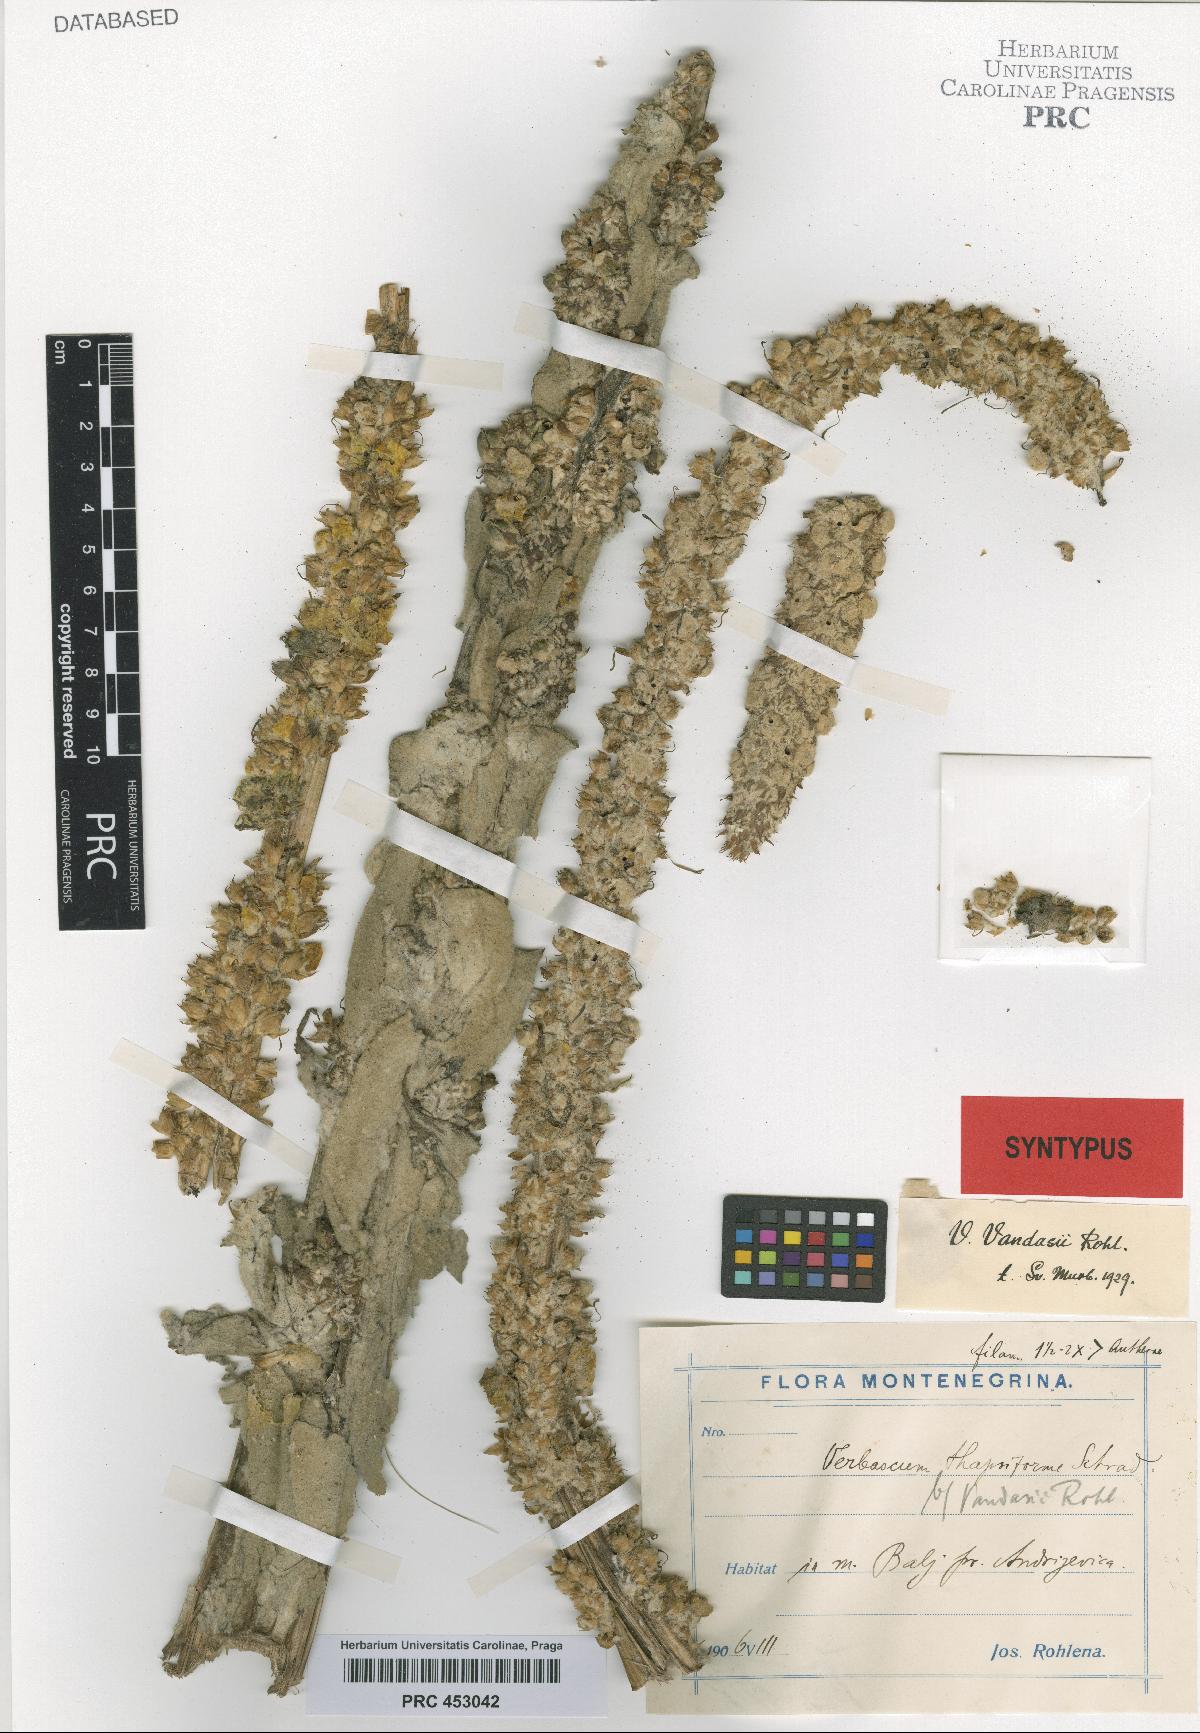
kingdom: Plantae
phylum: Tracheophyta
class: Magnoliopsida
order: Lamiales
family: Scrophulariaceae
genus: Verbascum
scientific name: Verbascum vandasii
